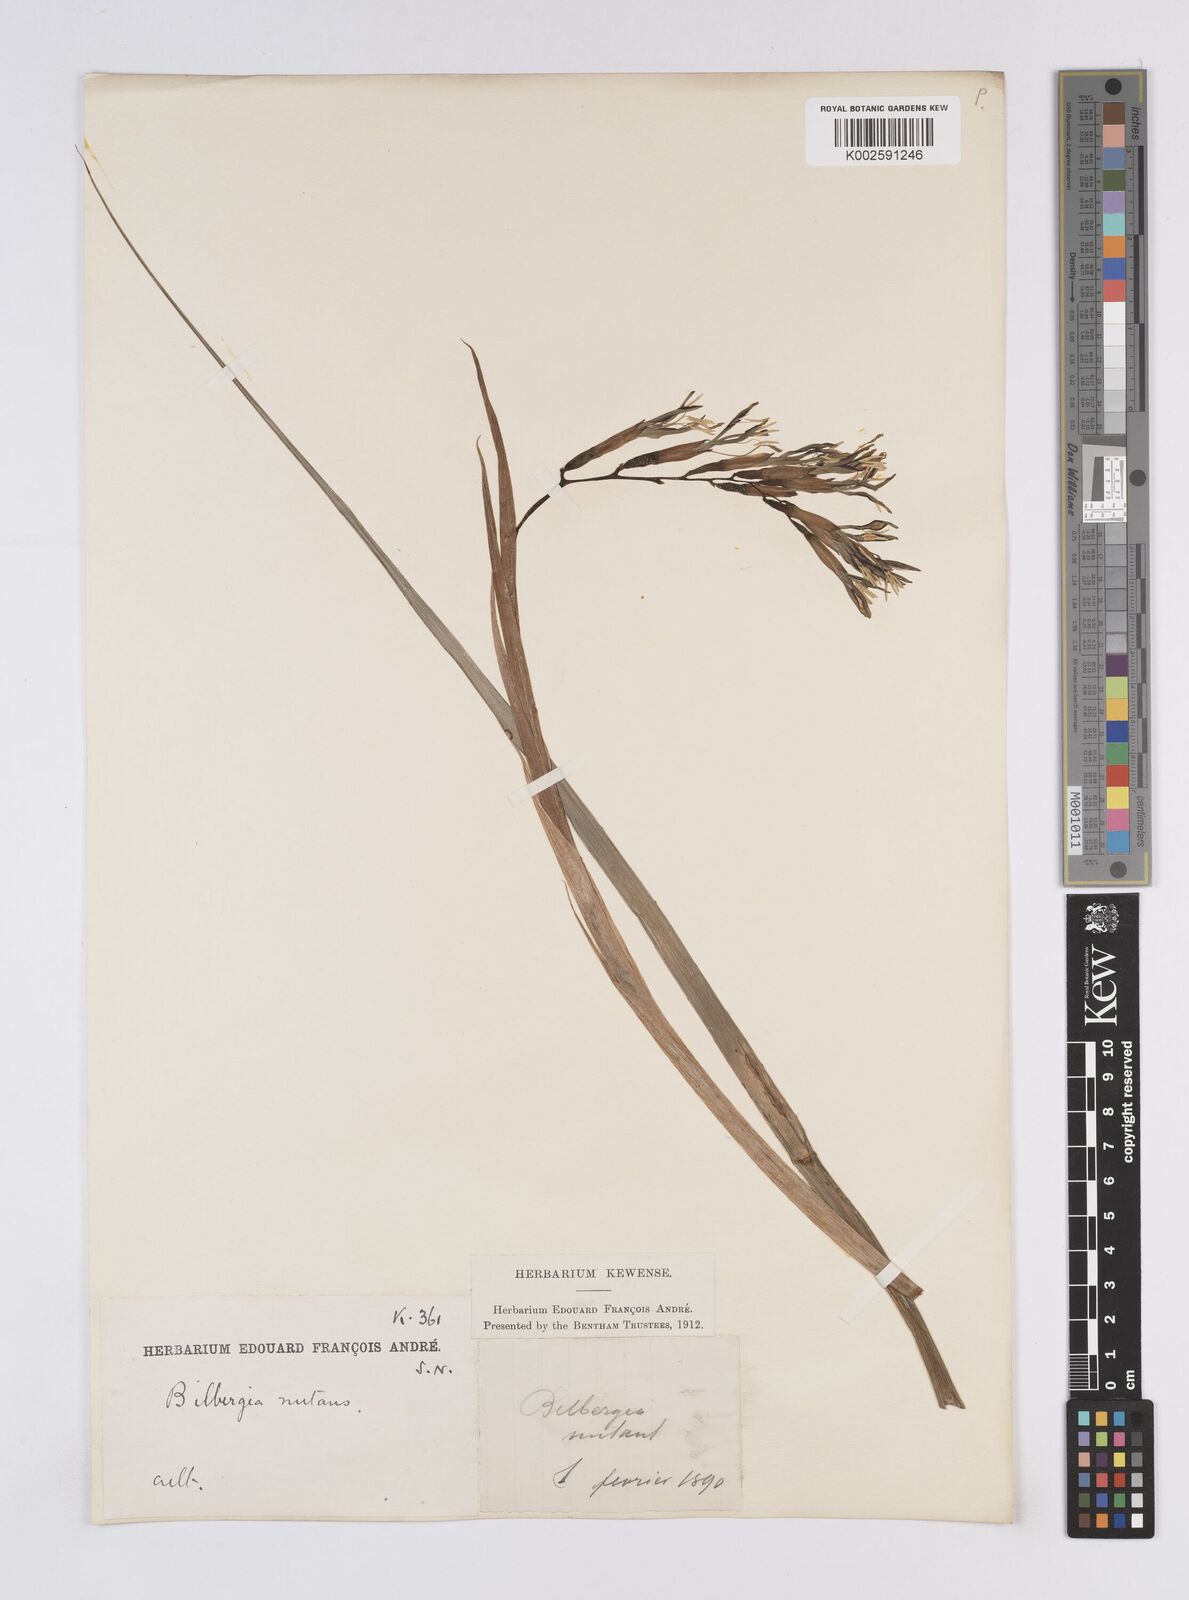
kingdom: Plantae
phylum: Tracheophyta
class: Liliopsida
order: Poales
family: Bromeliaceae
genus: Billbergia
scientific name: Billbergia nutans
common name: Friendship-plant
